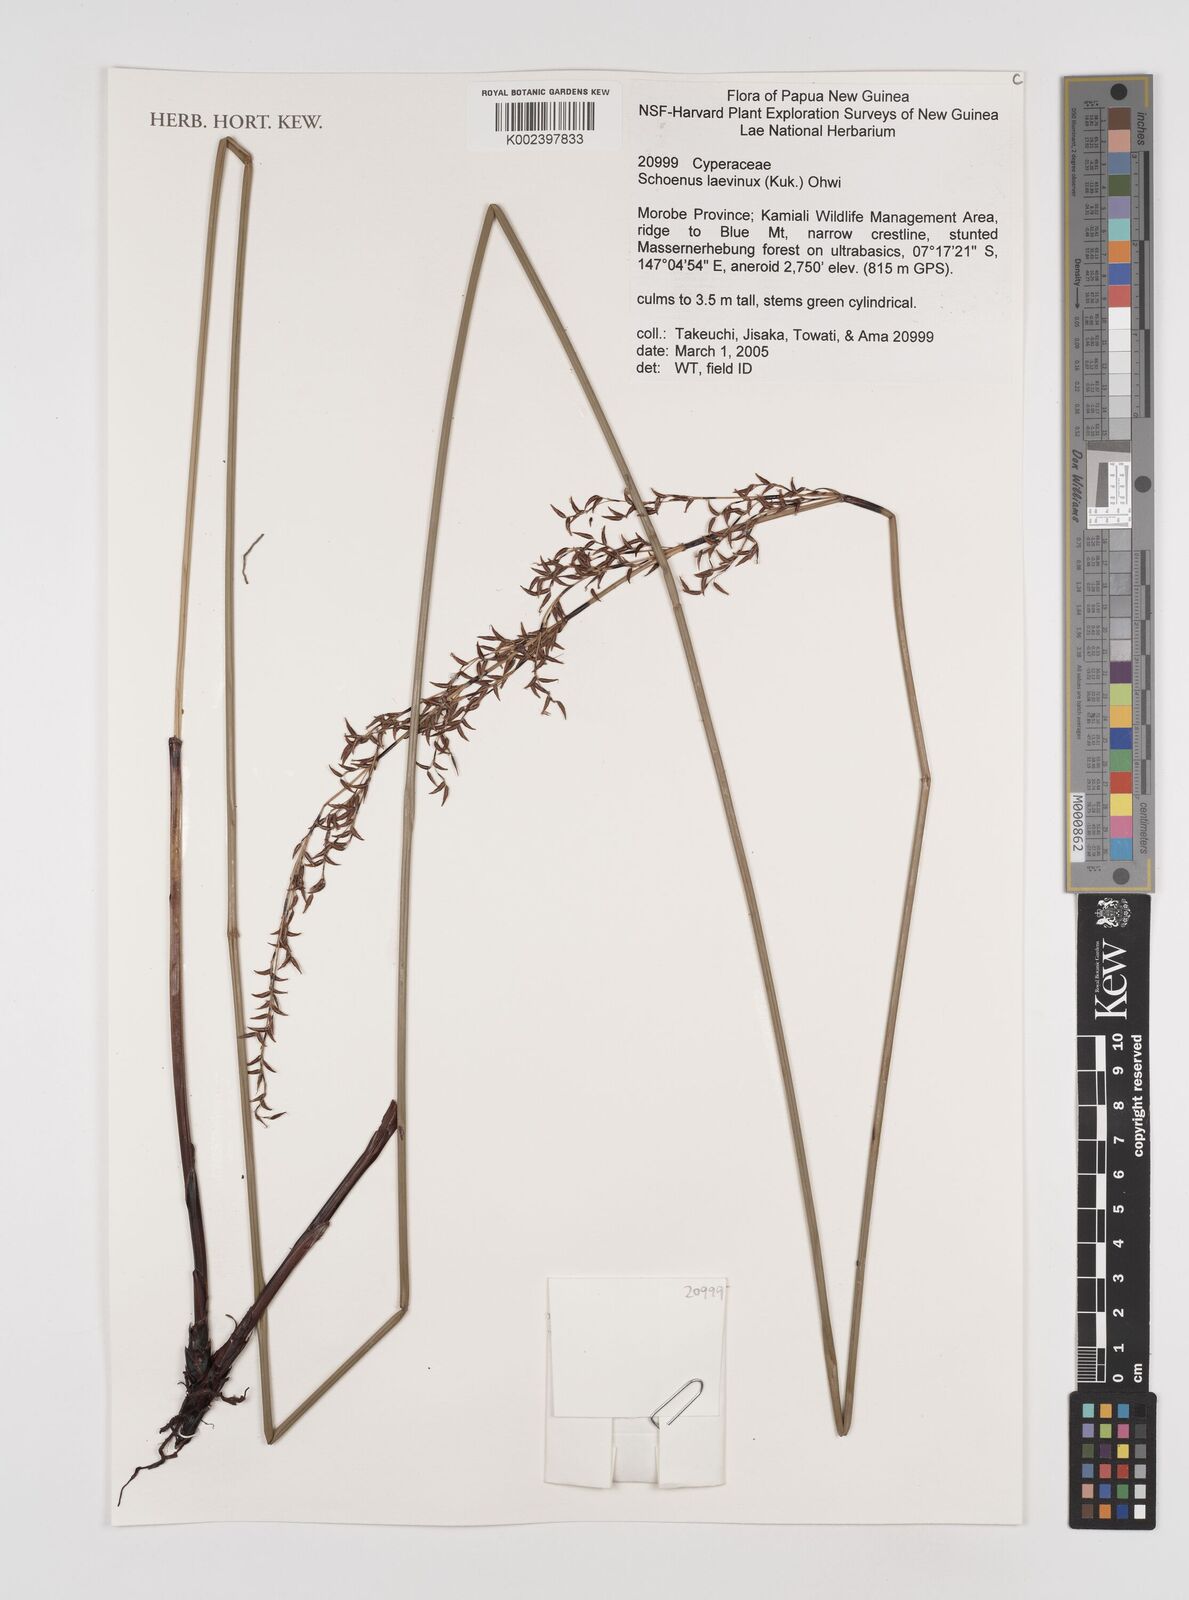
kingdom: Plantae
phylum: Tracheophyta
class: Liliopsida
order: Poales
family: Cyperaceae
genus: Schoenus
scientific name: Schoenus laevinux
